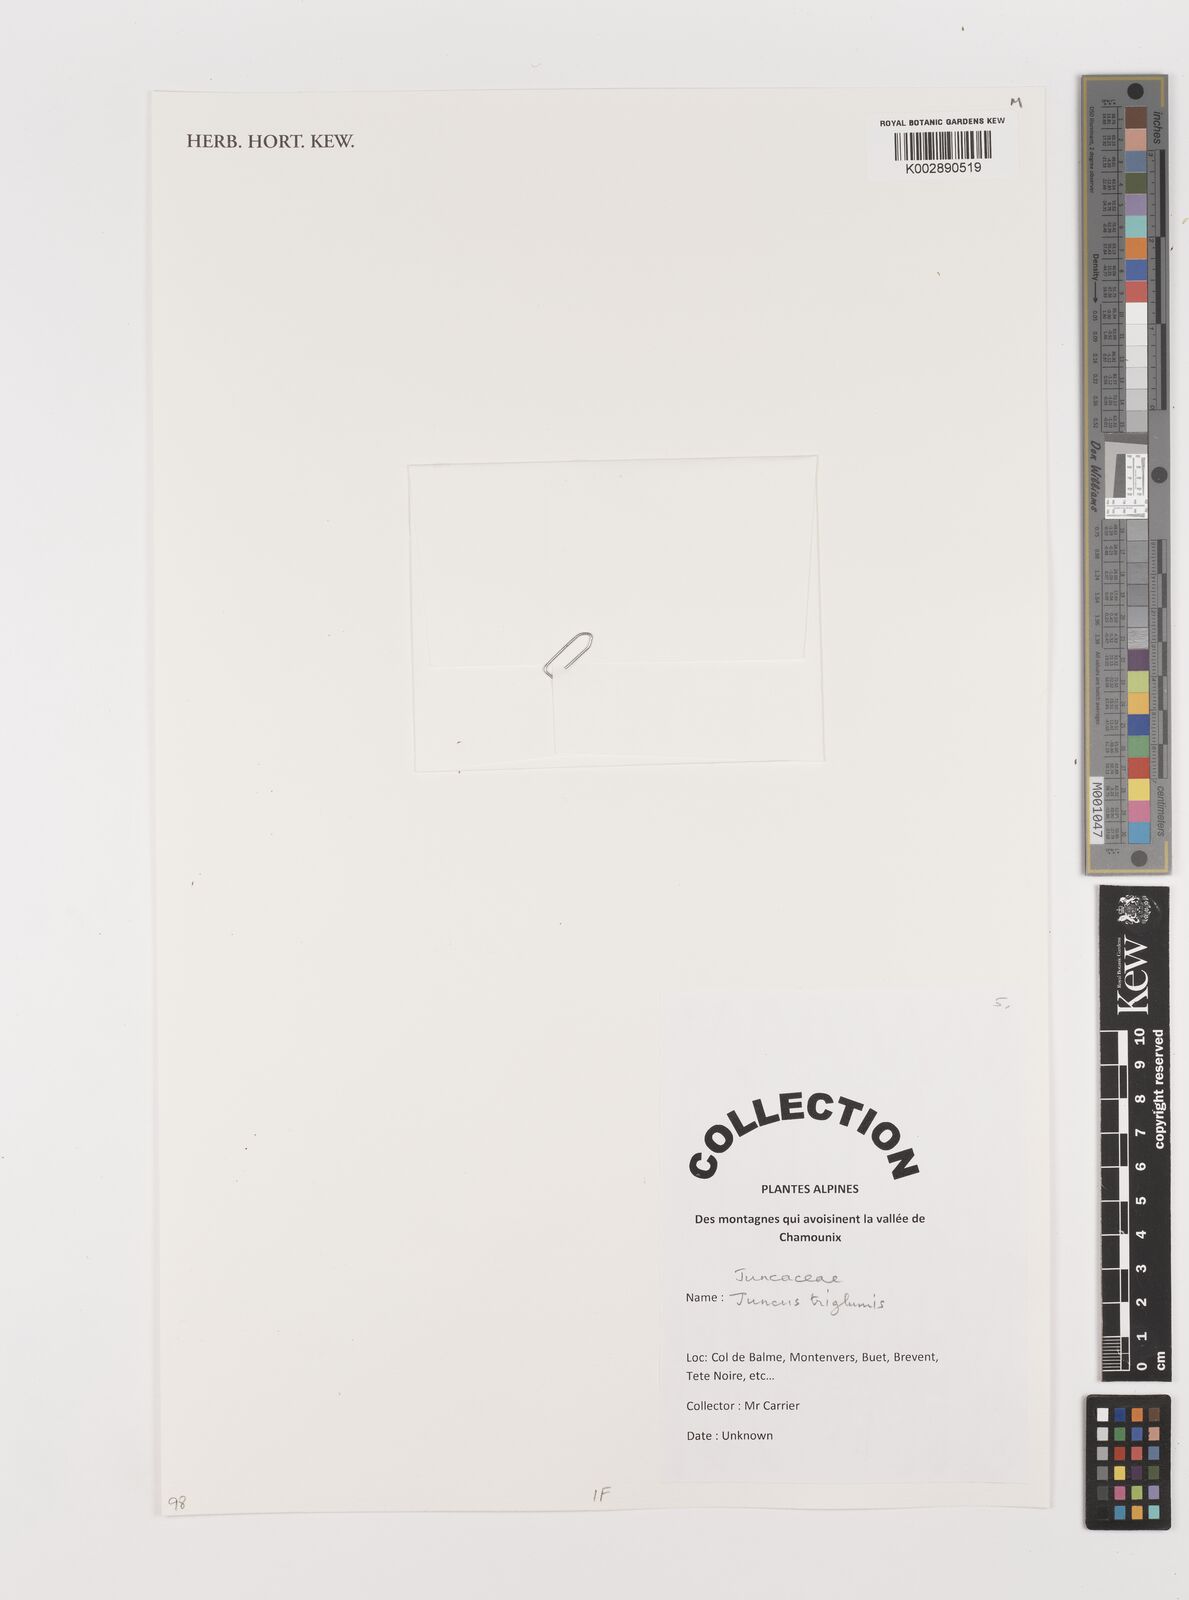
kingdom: Plantae
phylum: Tracheophyta
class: Liliopsida
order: Poales
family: Juncaceae
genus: Juncus
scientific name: Juncus triglumis
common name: Three-flowered rush
